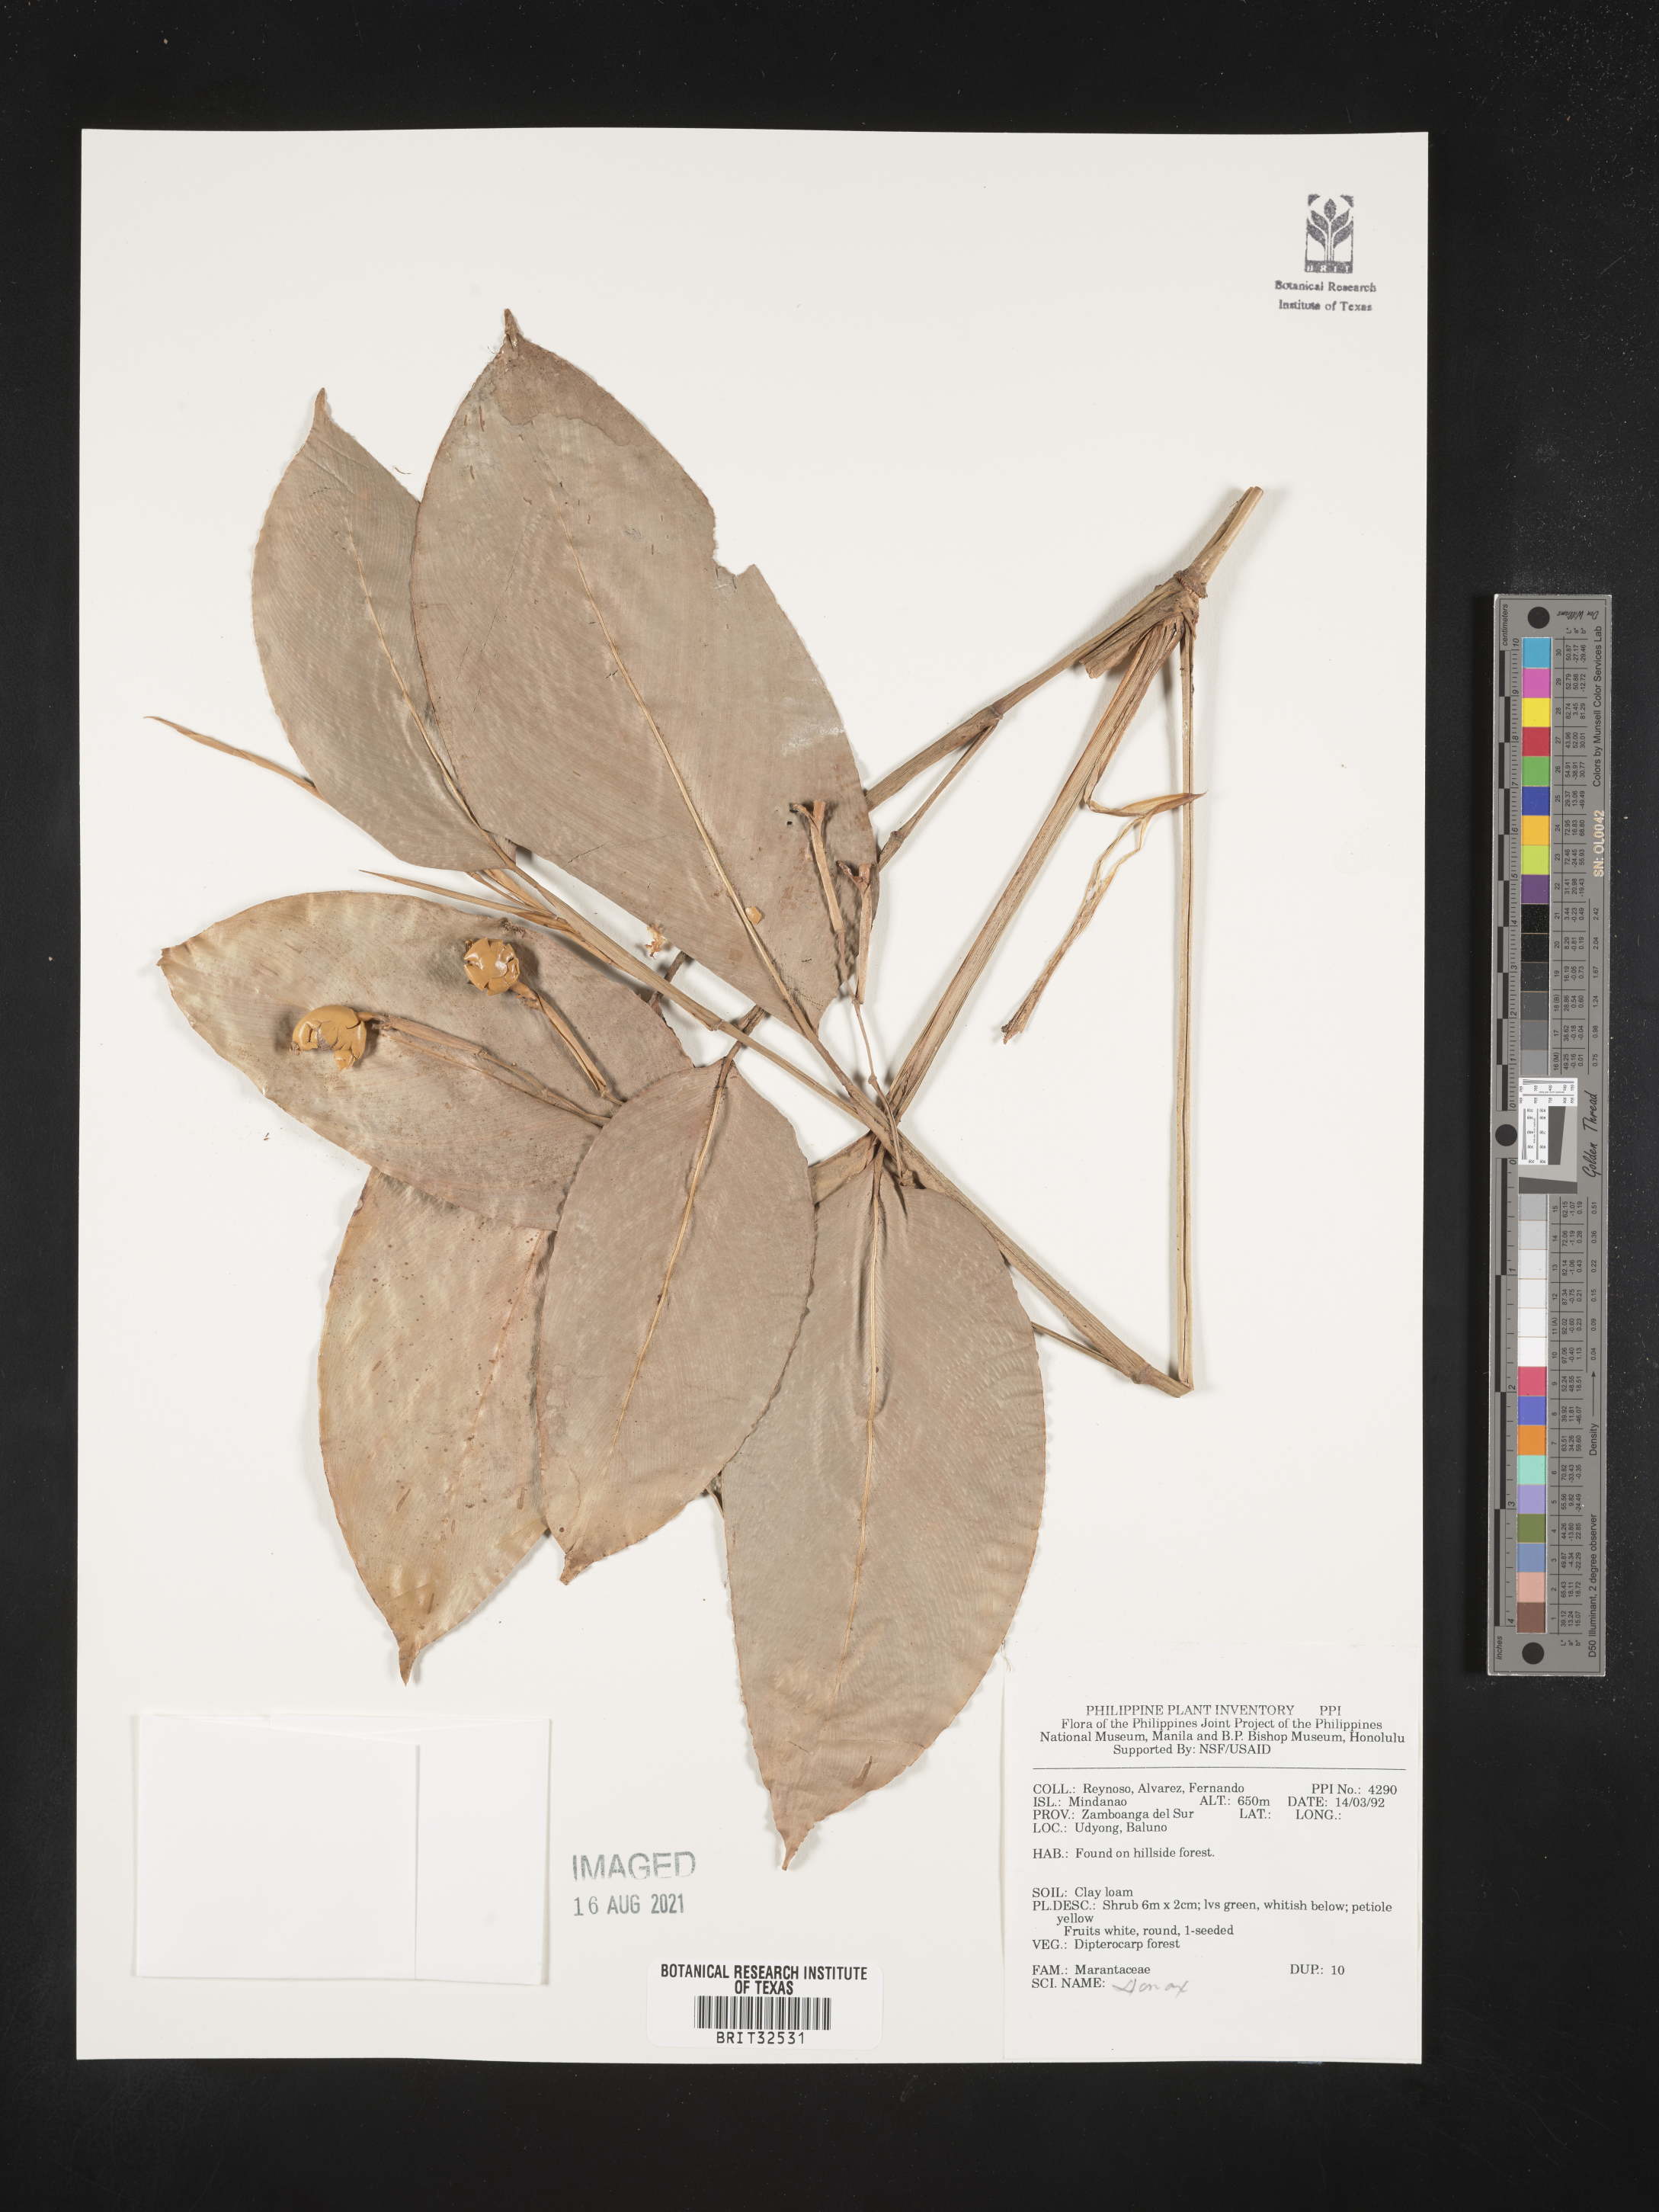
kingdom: Plantae
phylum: Tracheophyta
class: Liliopsida
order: Zingiberales
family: Marantaceae
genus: Donax
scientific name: Donax
